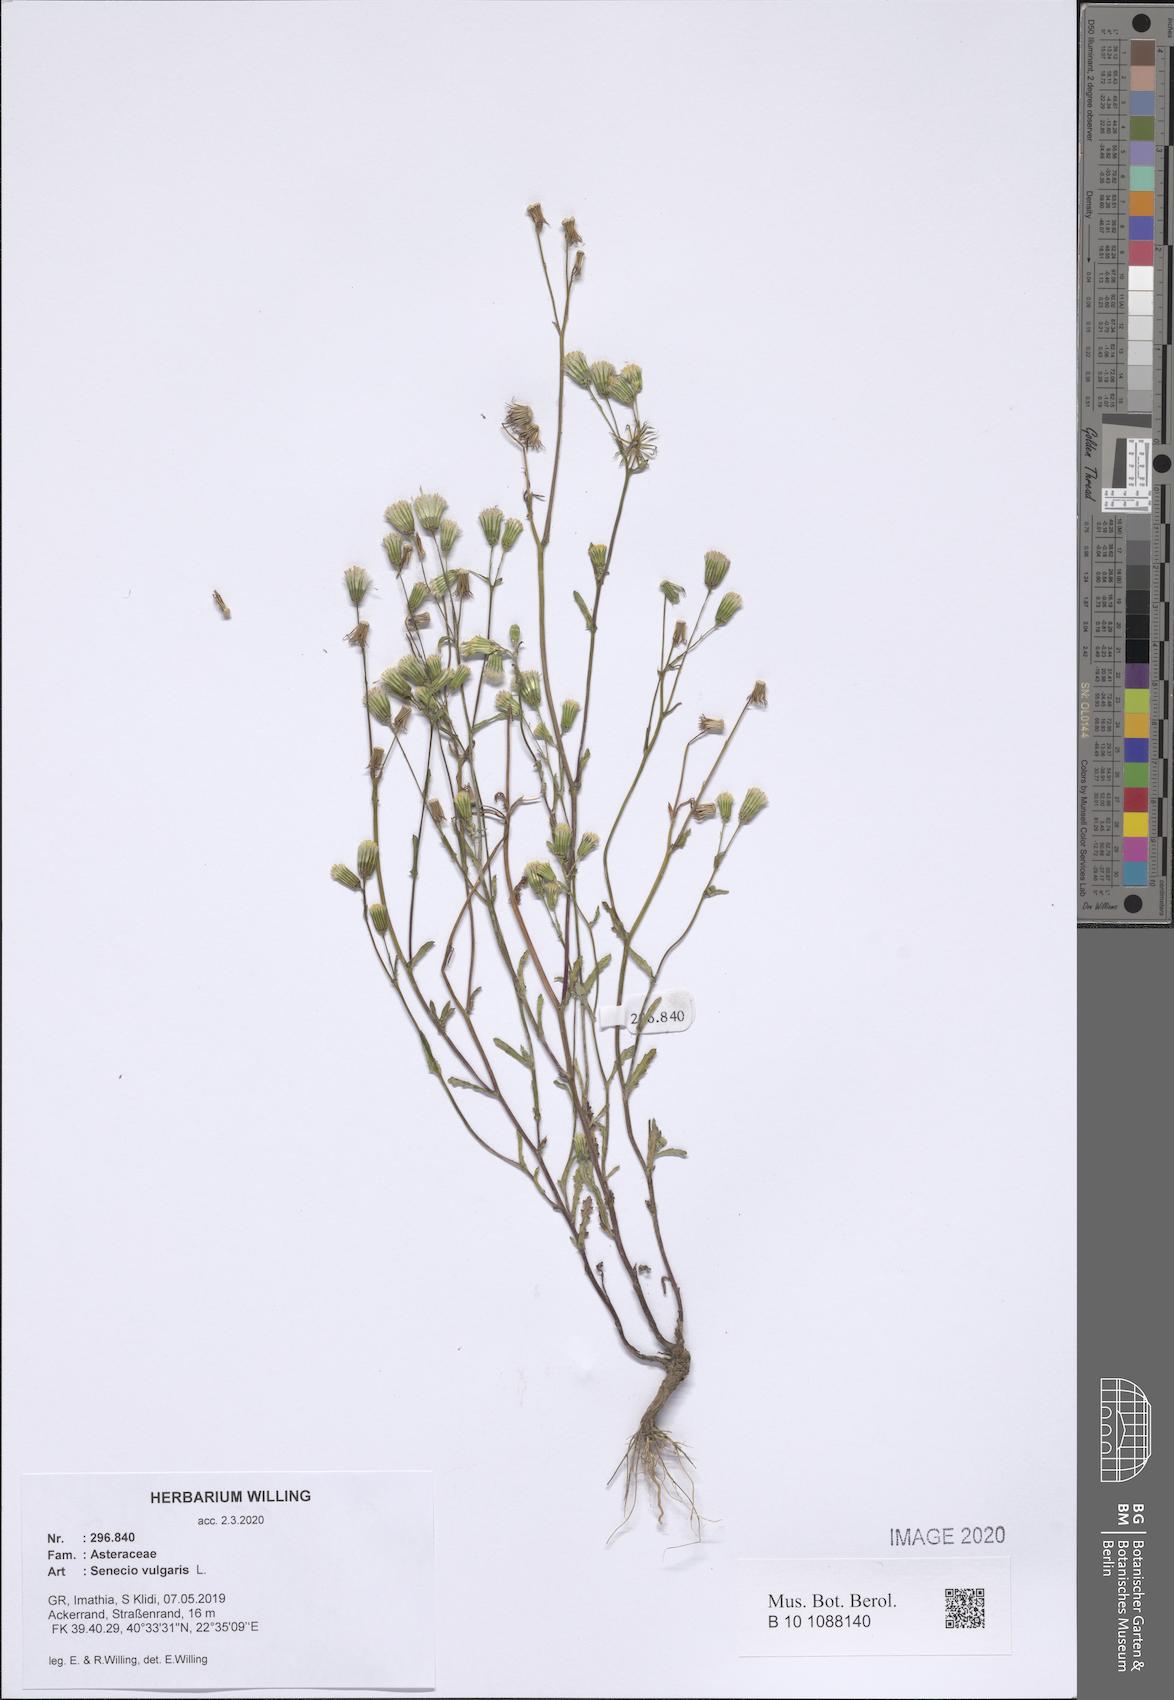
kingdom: Plantae
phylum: Tracheophyta
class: Magnoliopsida
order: Asterales
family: Asteraceae
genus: Senecio
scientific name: Senecio vulgaris
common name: Old-man-in-the-spring
